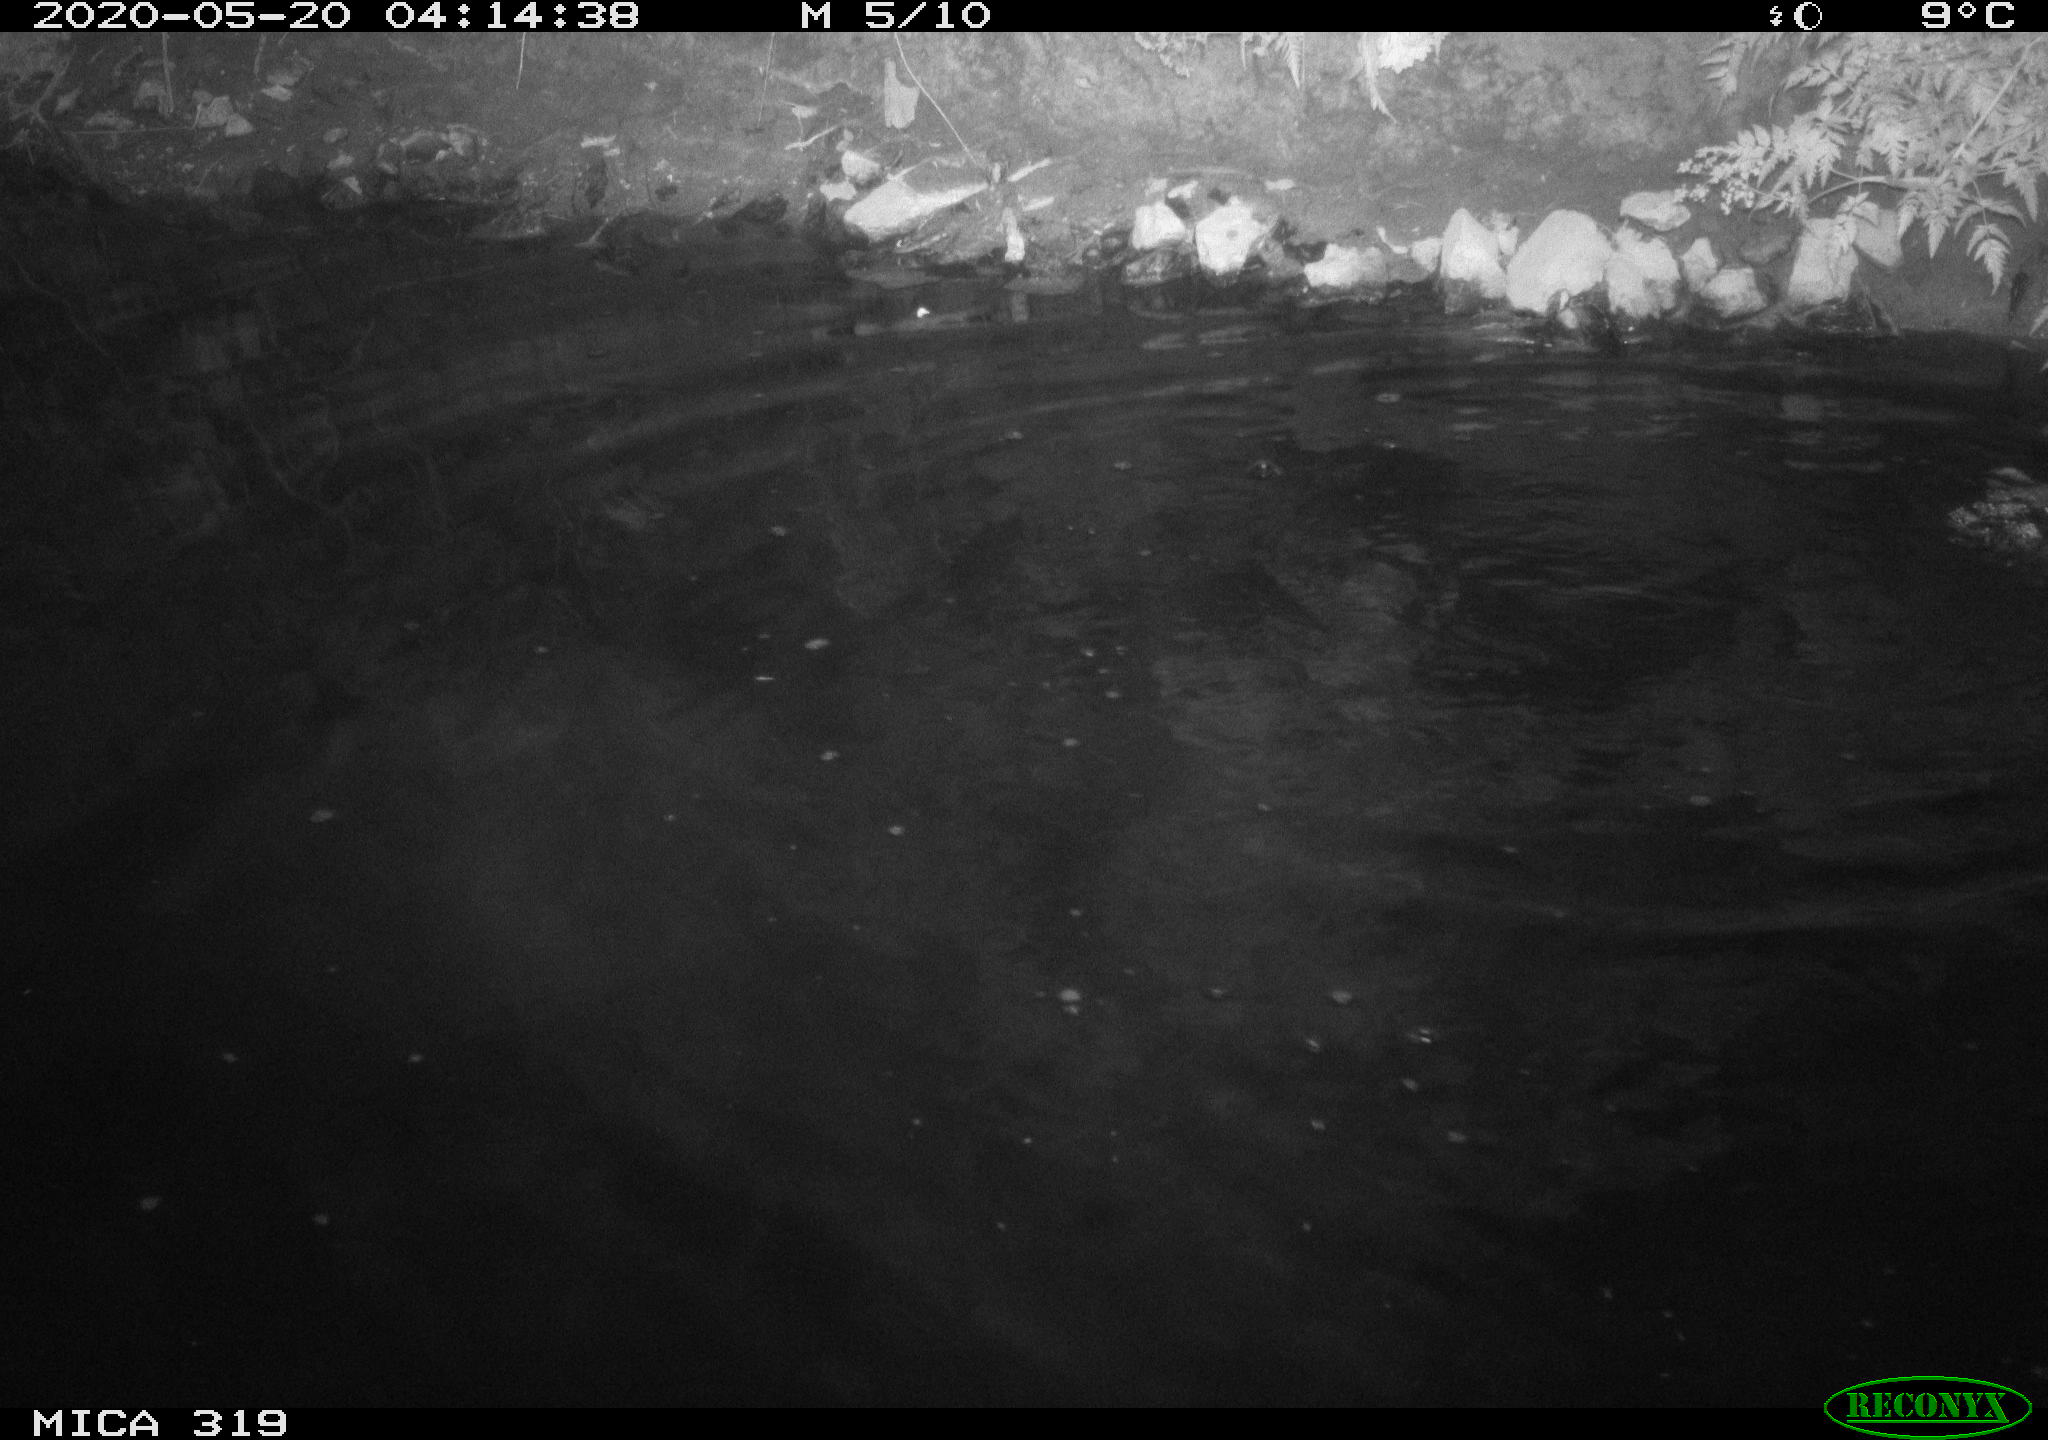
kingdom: Animalia
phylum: Chordata
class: Aves
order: Anseriformes
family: Anatidae
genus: Anas
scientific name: Anas platyrhynchos
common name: Mallard
